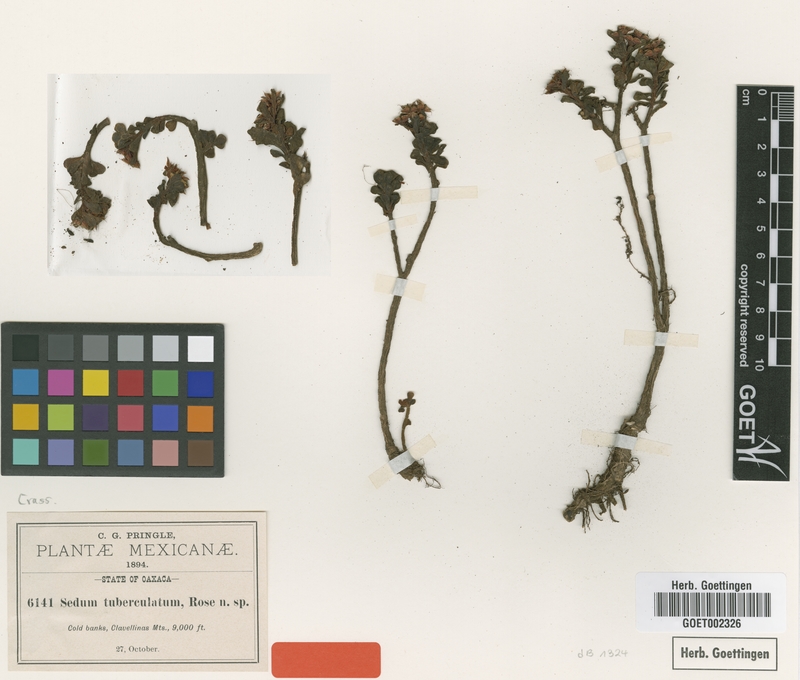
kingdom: Plantae
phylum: Tracheophyta
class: Magnoliopsida
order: Saxifragales
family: Crassulaceae
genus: Sedum
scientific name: Sedum tuberculatum
